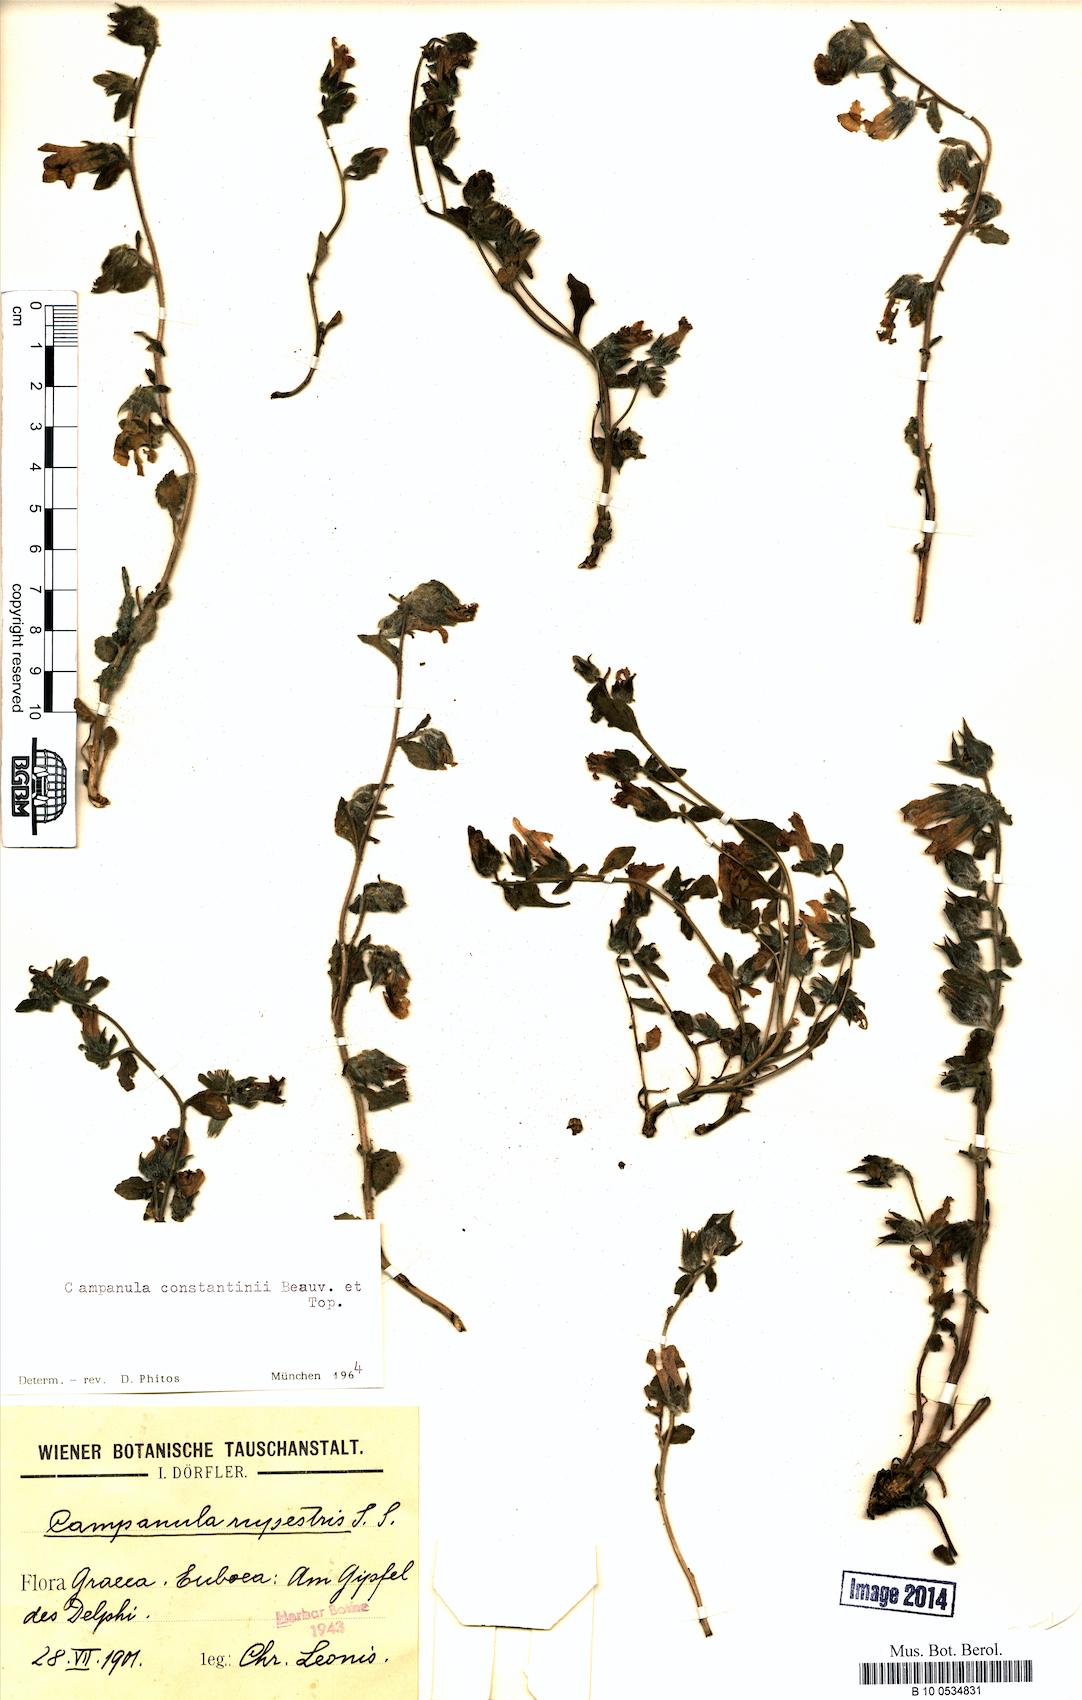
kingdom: Plantae
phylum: Tracheophyta
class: Magnoliopsida
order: Asterales
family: Campanulaceae
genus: Campanula
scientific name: Campanula constantini
